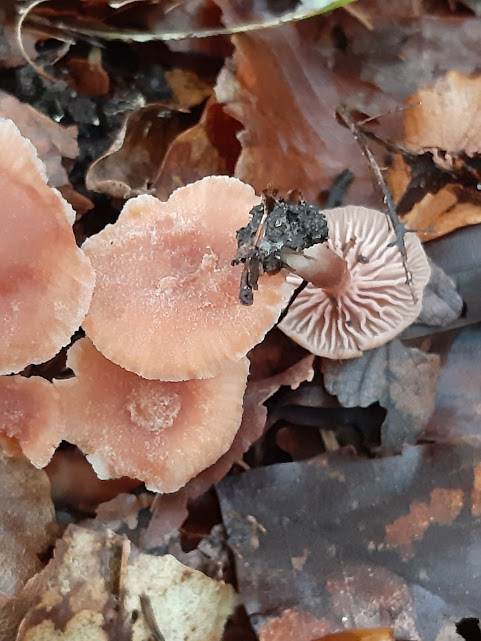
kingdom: Fungi
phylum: Basidiomycota
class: Agaricomycetes
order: Agaricales
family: Hydnangiaceae
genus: Laccaria
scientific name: Laccaria laccata
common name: rød ametysthat
